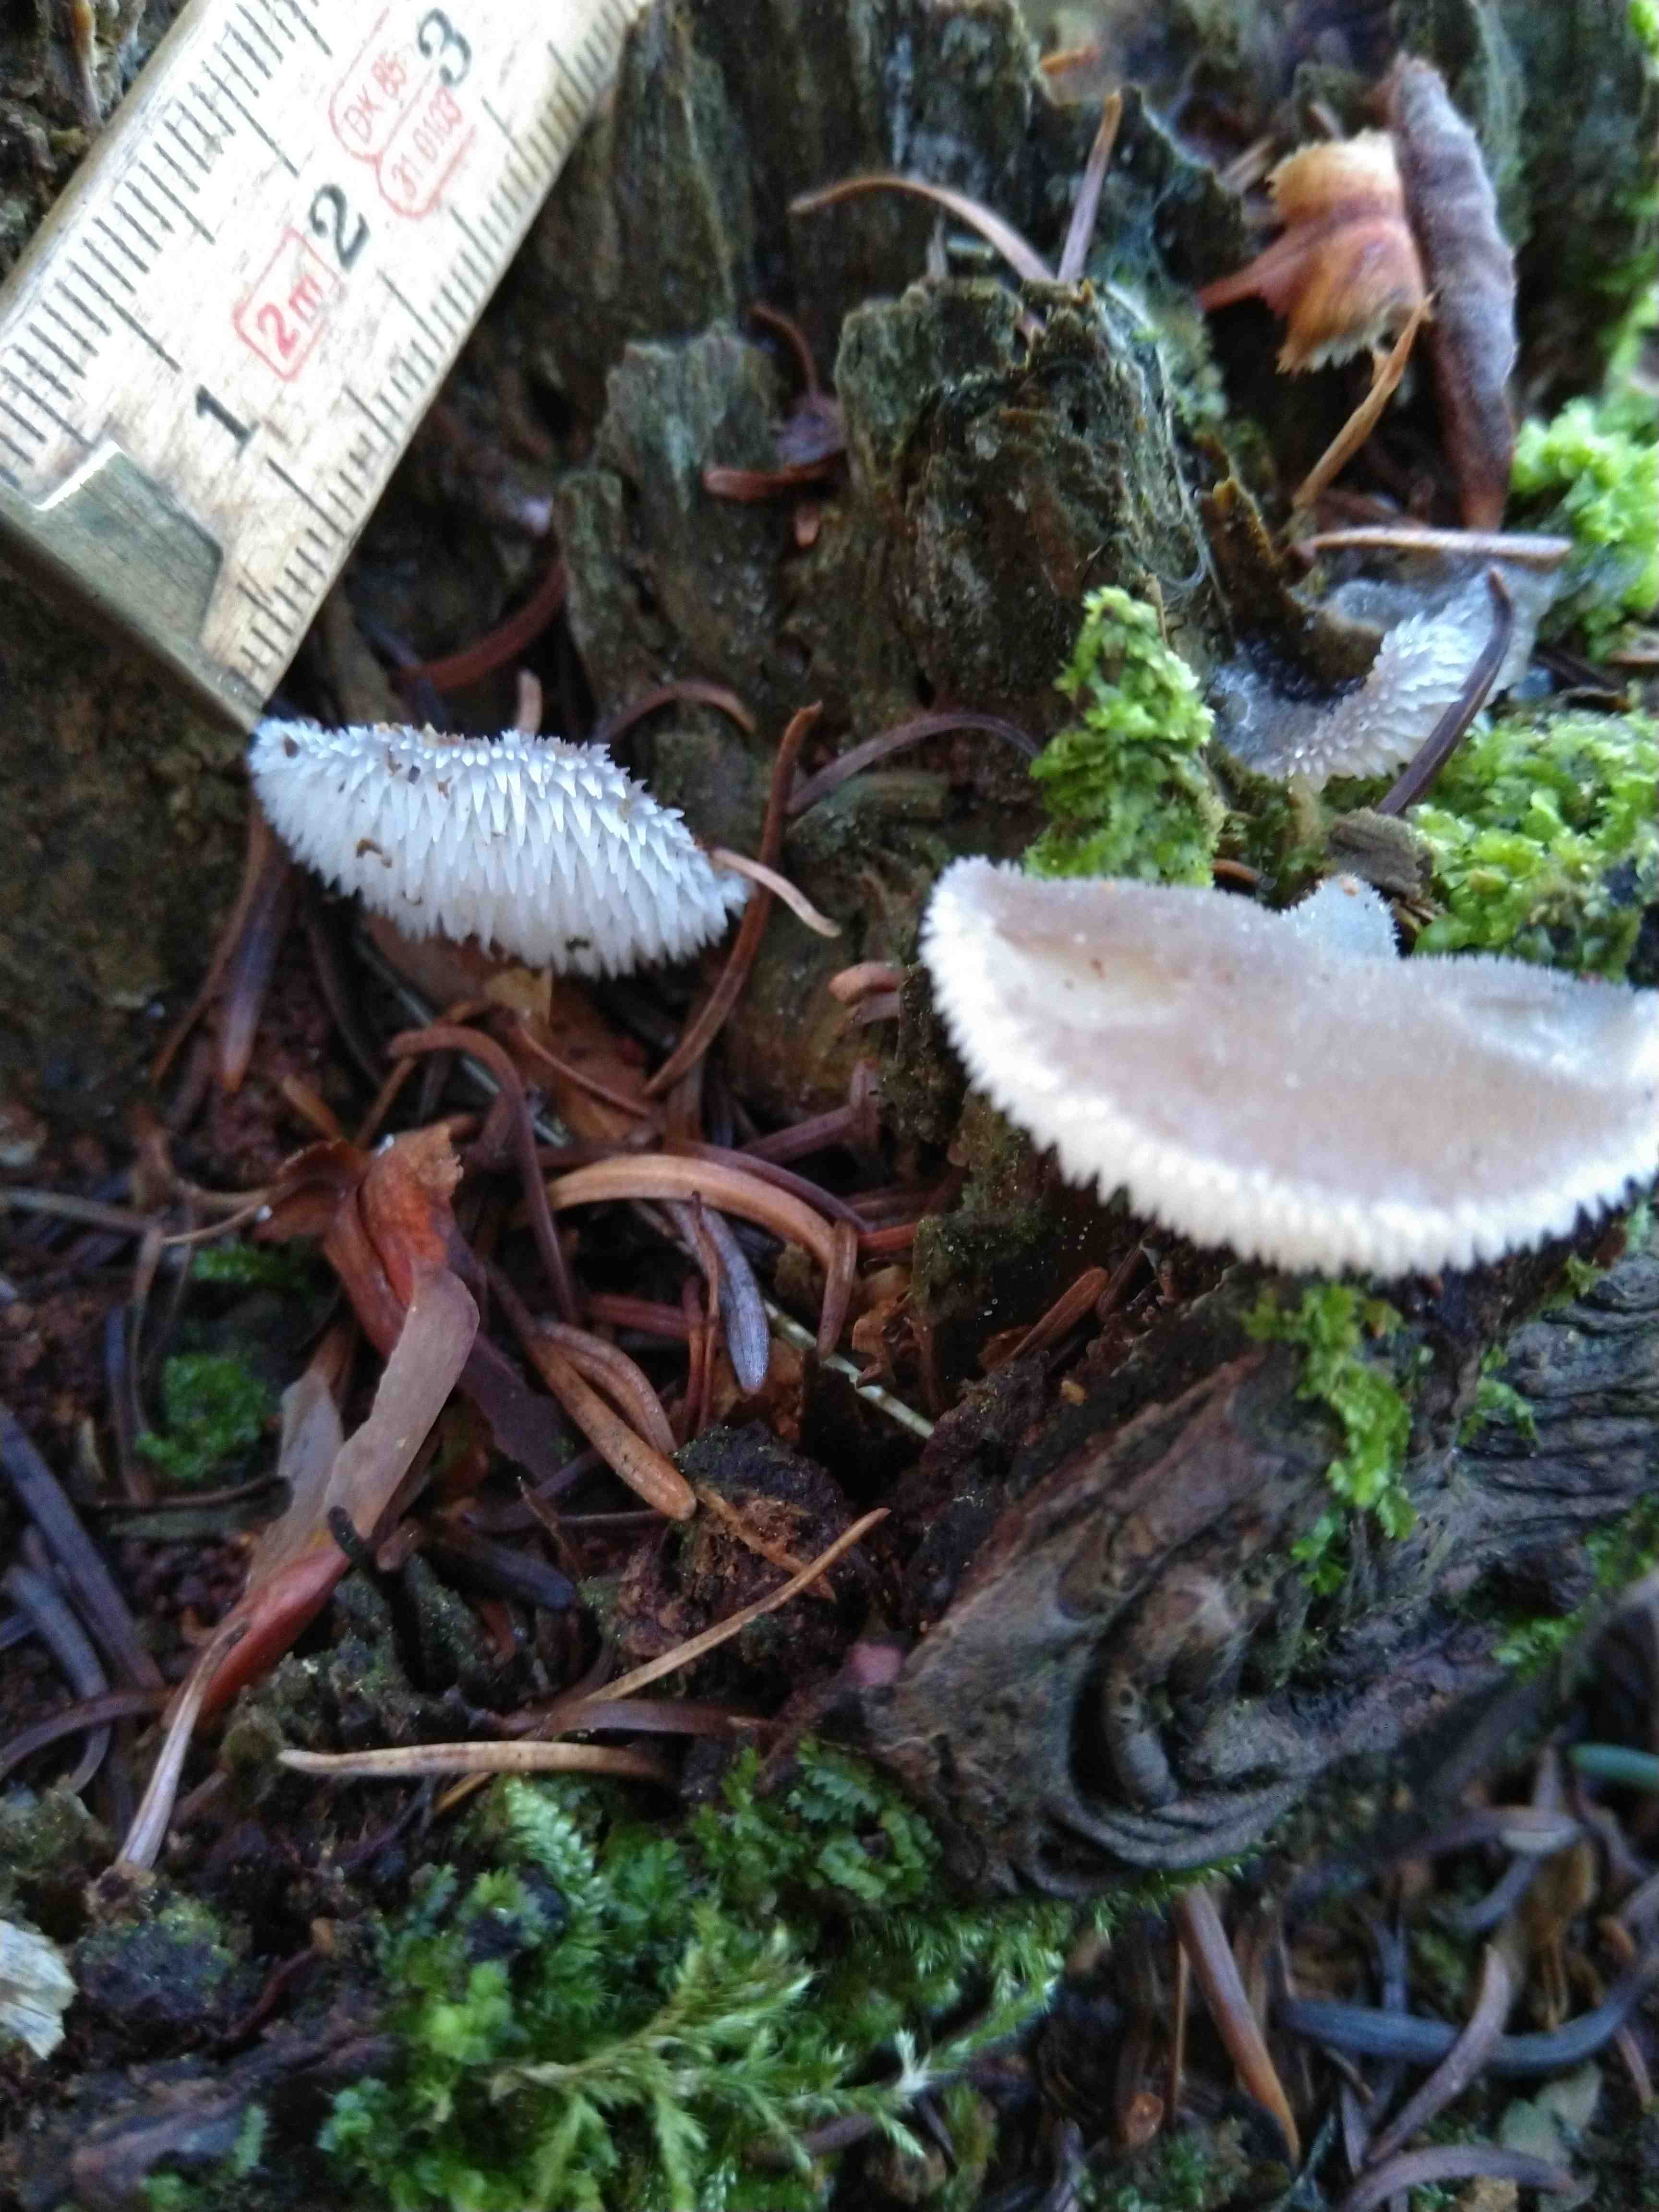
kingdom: Fungi
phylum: Basidiomycota
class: Agaricomycetes
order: Auriculariales
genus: Pseudohydnum
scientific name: Pseudohydnum gelatinosum
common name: bævretand
